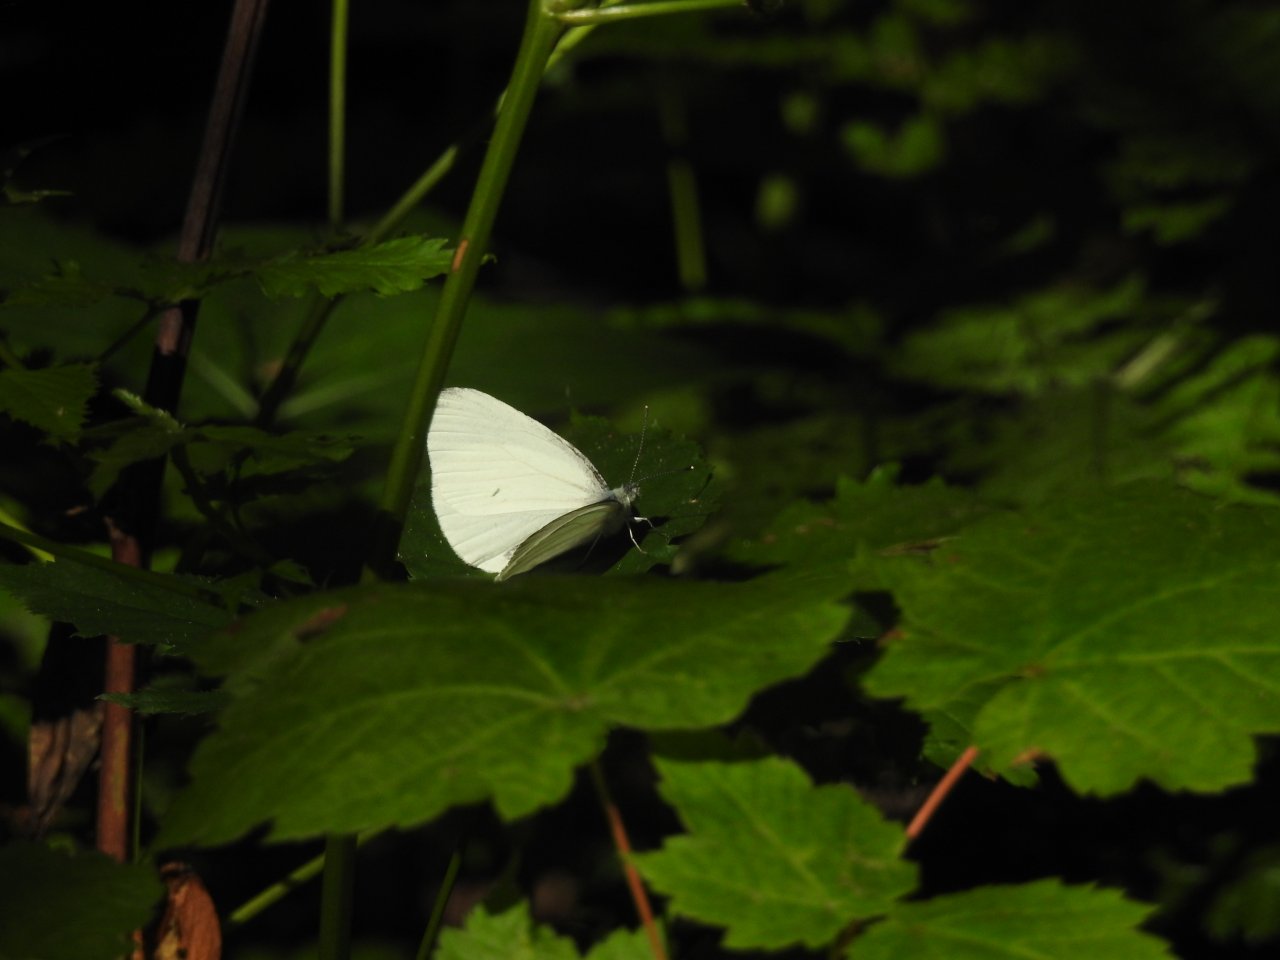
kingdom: Animalia
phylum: Arthropoda
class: Insecta
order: Lepidoptera
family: Pieridae
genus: Pieris
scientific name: Pieris oleracea
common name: Mustard White
